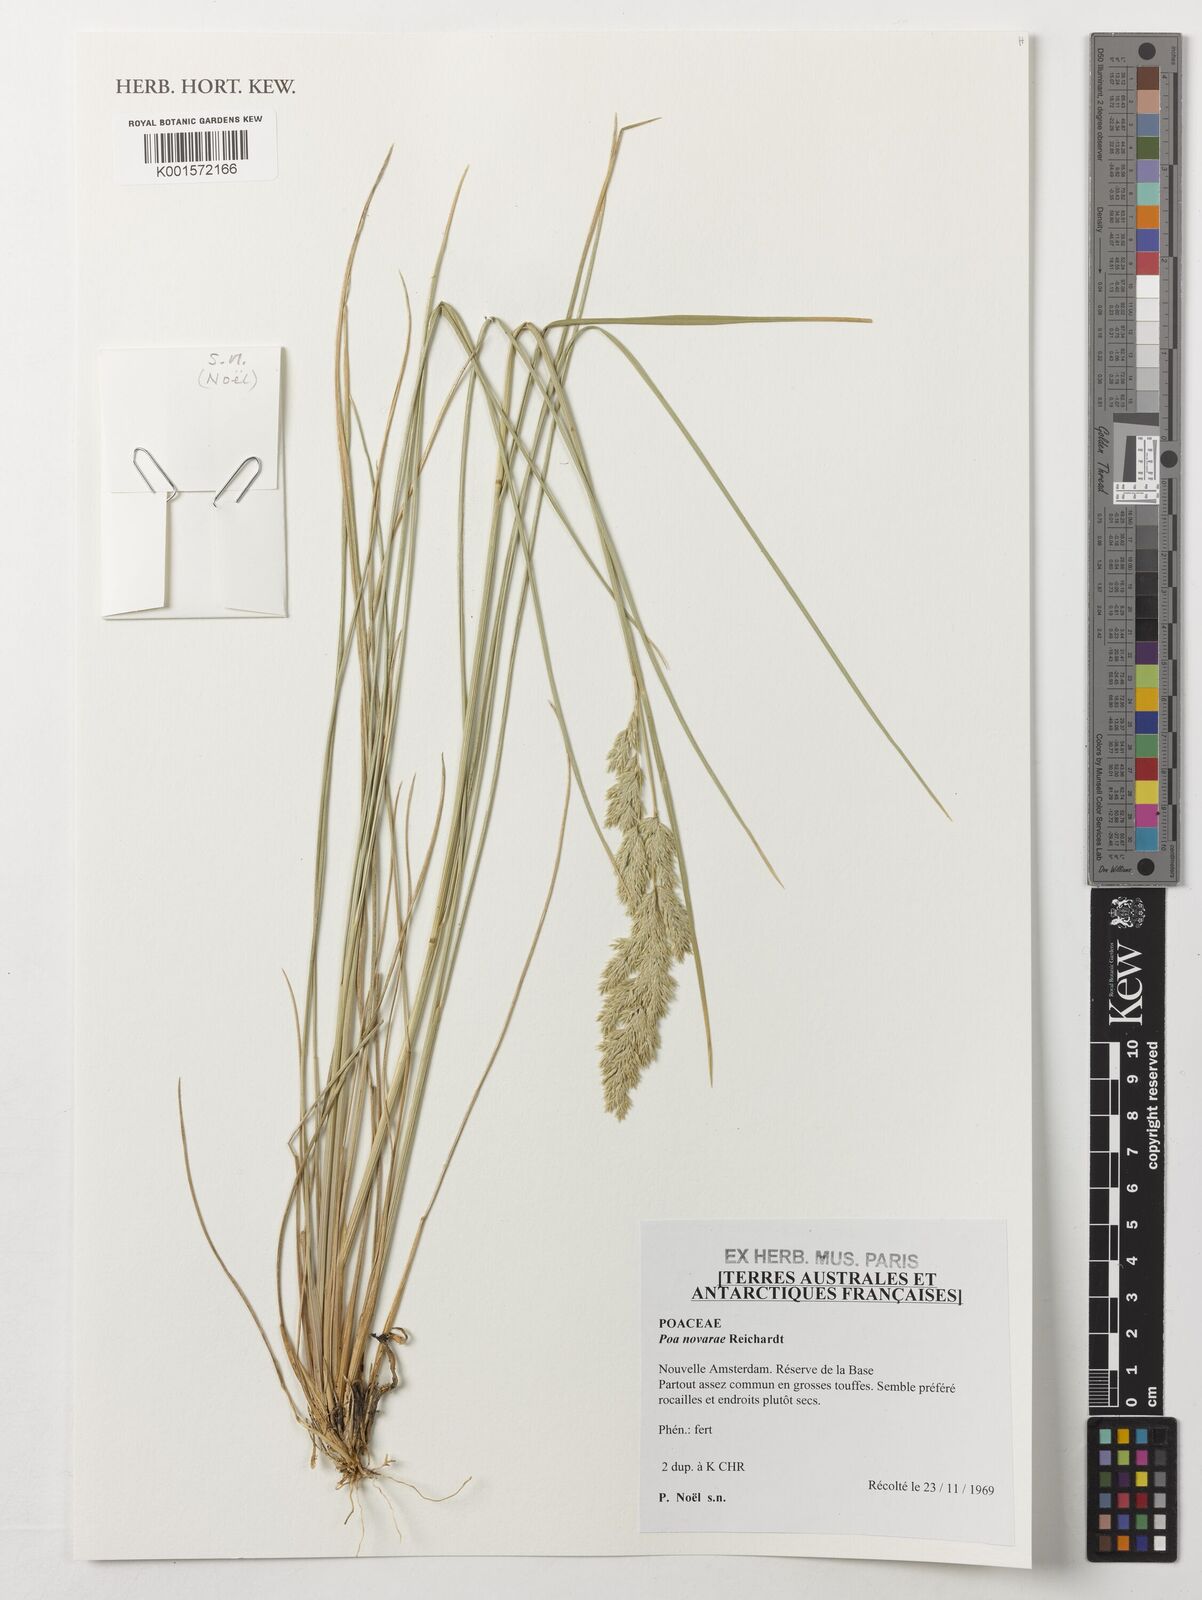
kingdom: Plantae
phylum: Tracheophyta
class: Liliopsida
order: Poales
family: Poaceae
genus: Poa
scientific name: Poa novarae
